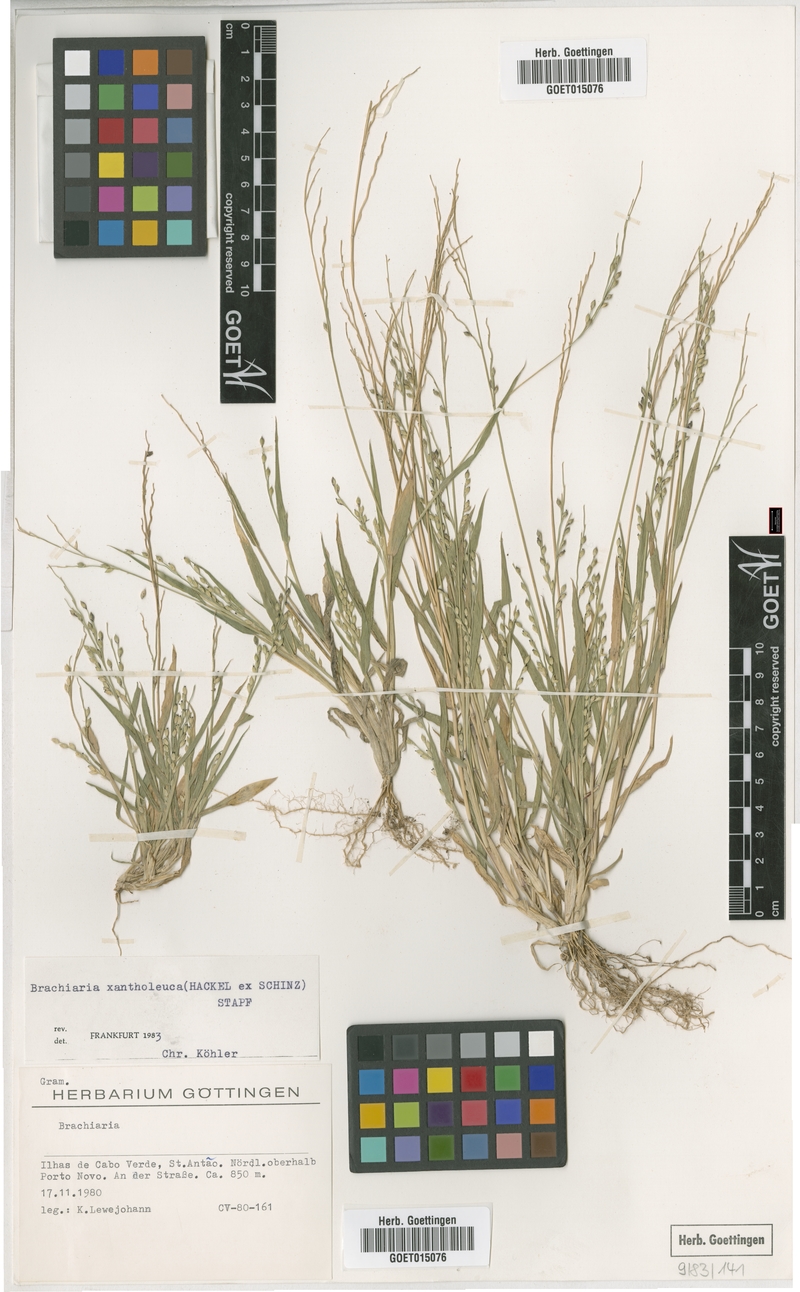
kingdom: Plantae
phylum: Tracheophyta
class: Liliopsida
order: Poales
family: Poaceae
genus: Urochloa
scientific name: Urochloa xantholeuca
